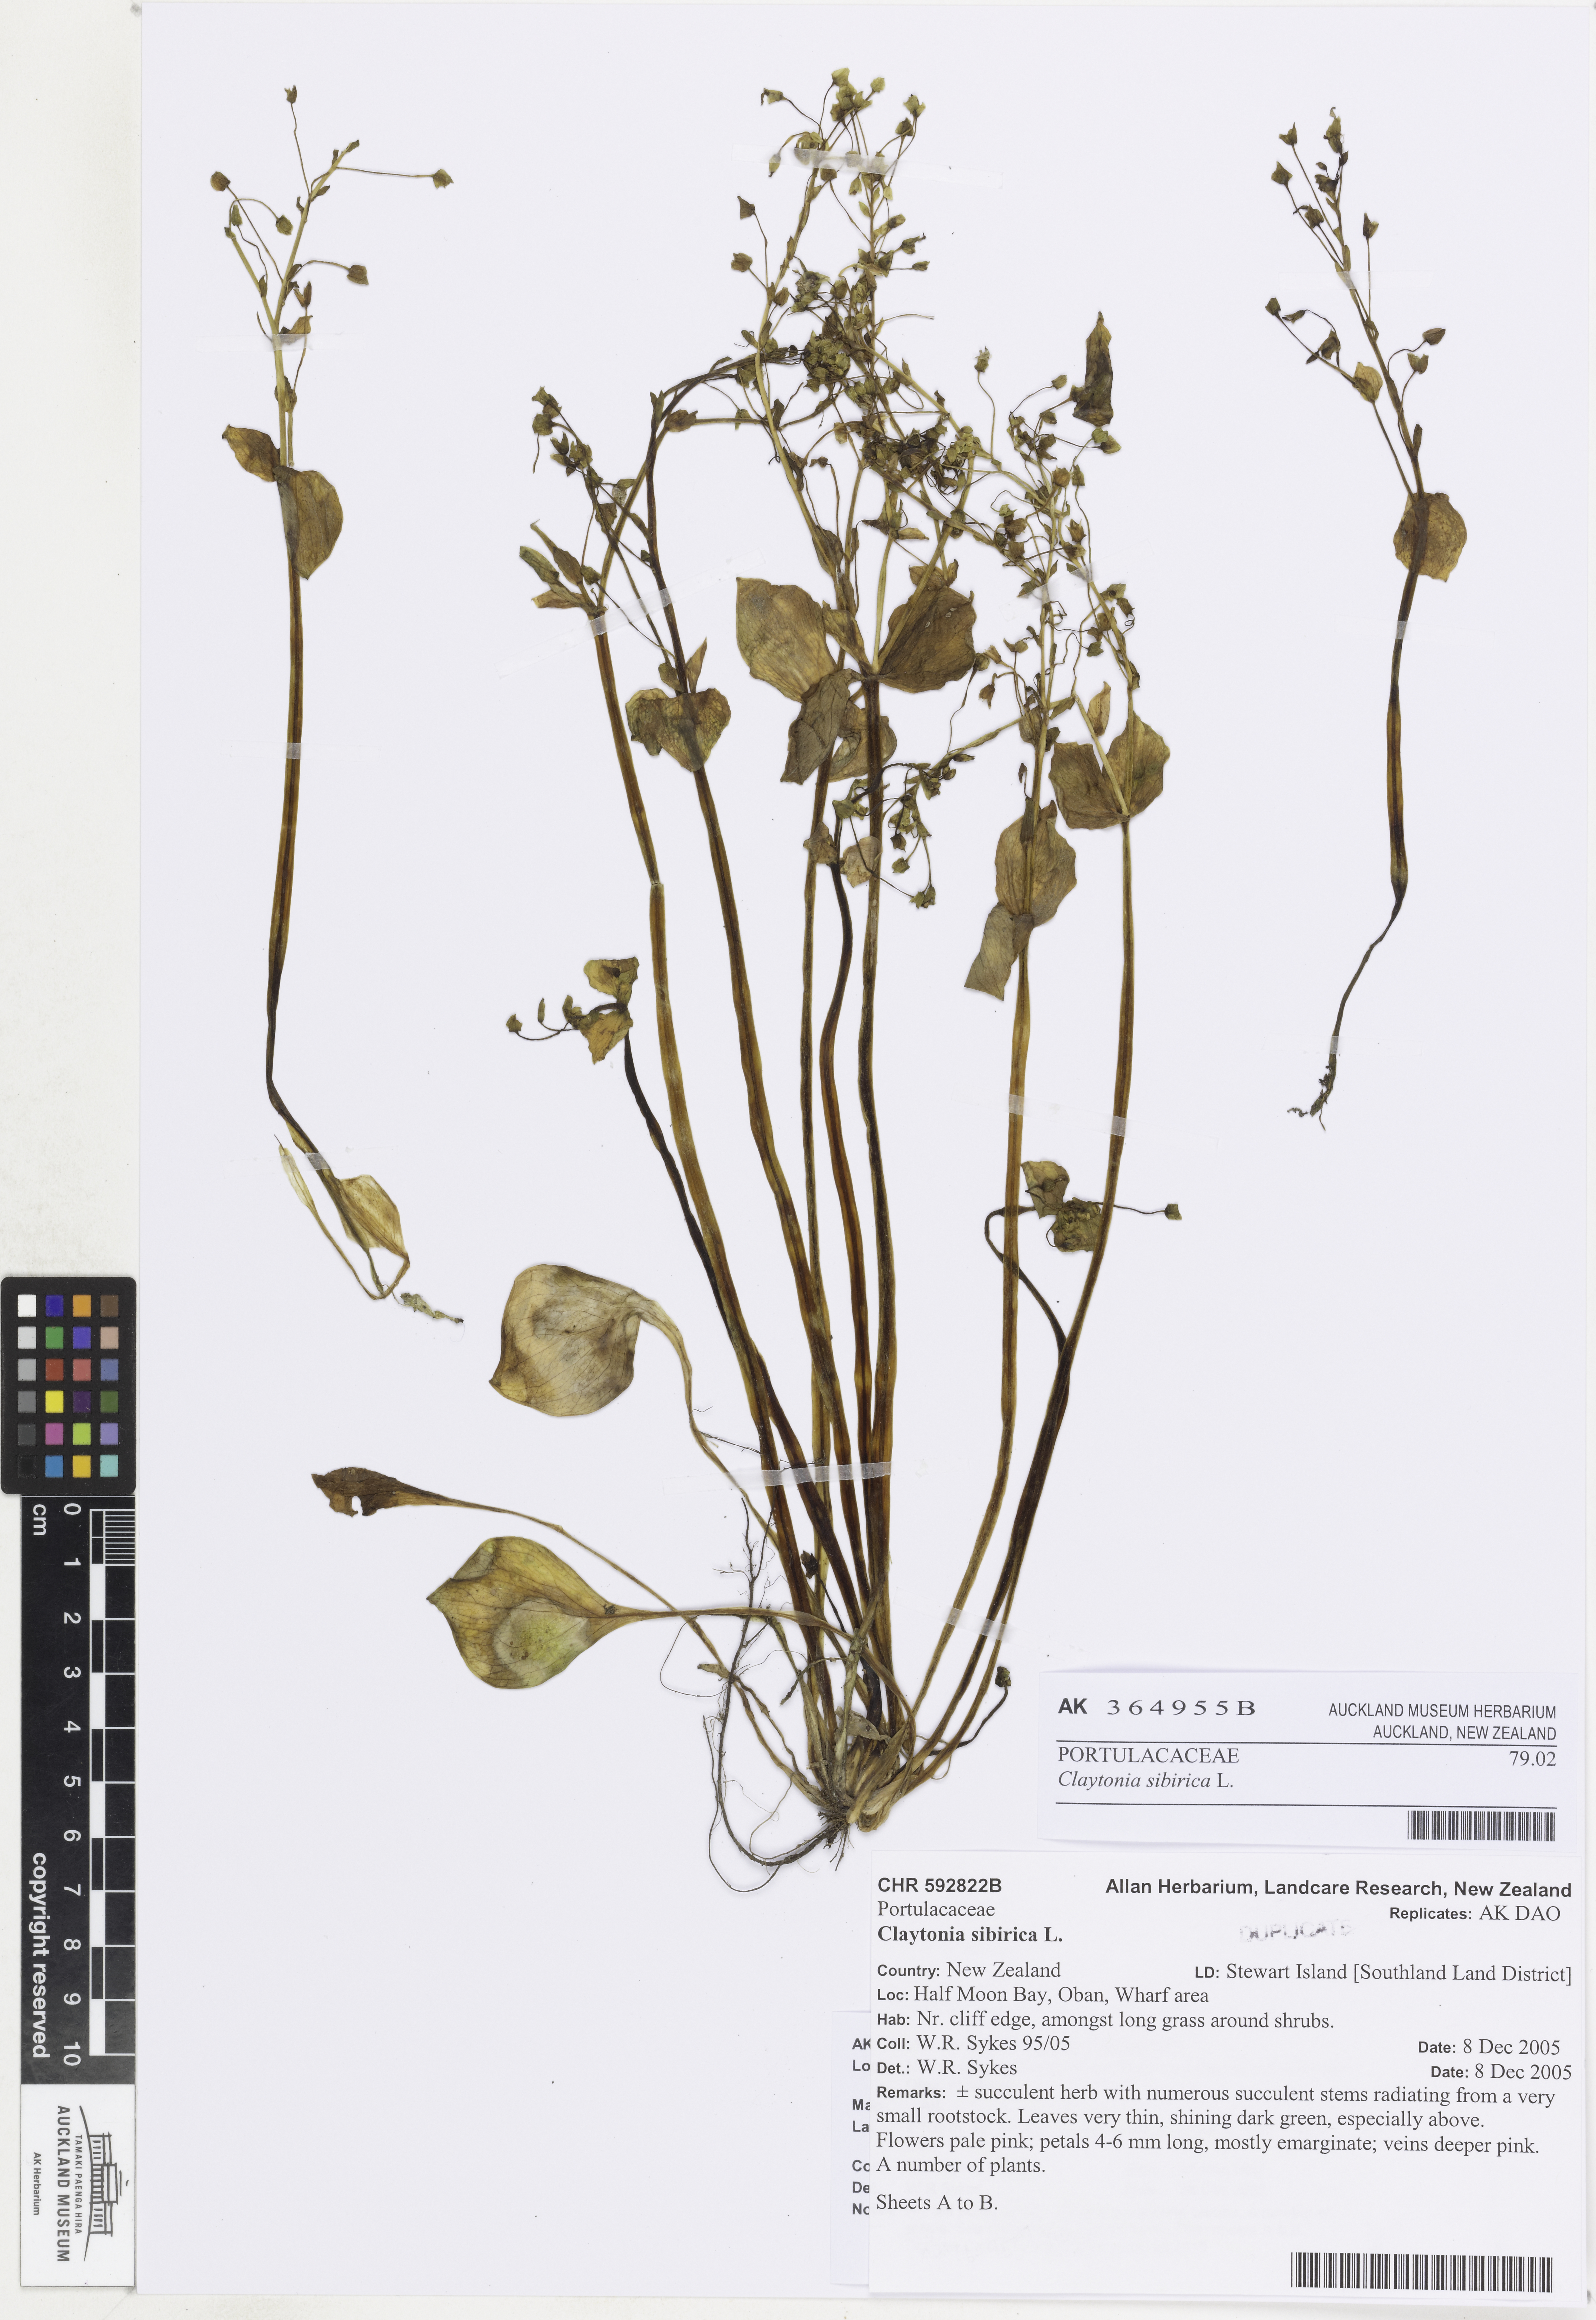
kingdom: Plantae
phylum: Tracheophyta
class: Magnoliopsida
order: Caryophyllales
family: Montiaceae
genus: Claytonia
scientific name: Claytonia sibirica
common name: Pink purslane
